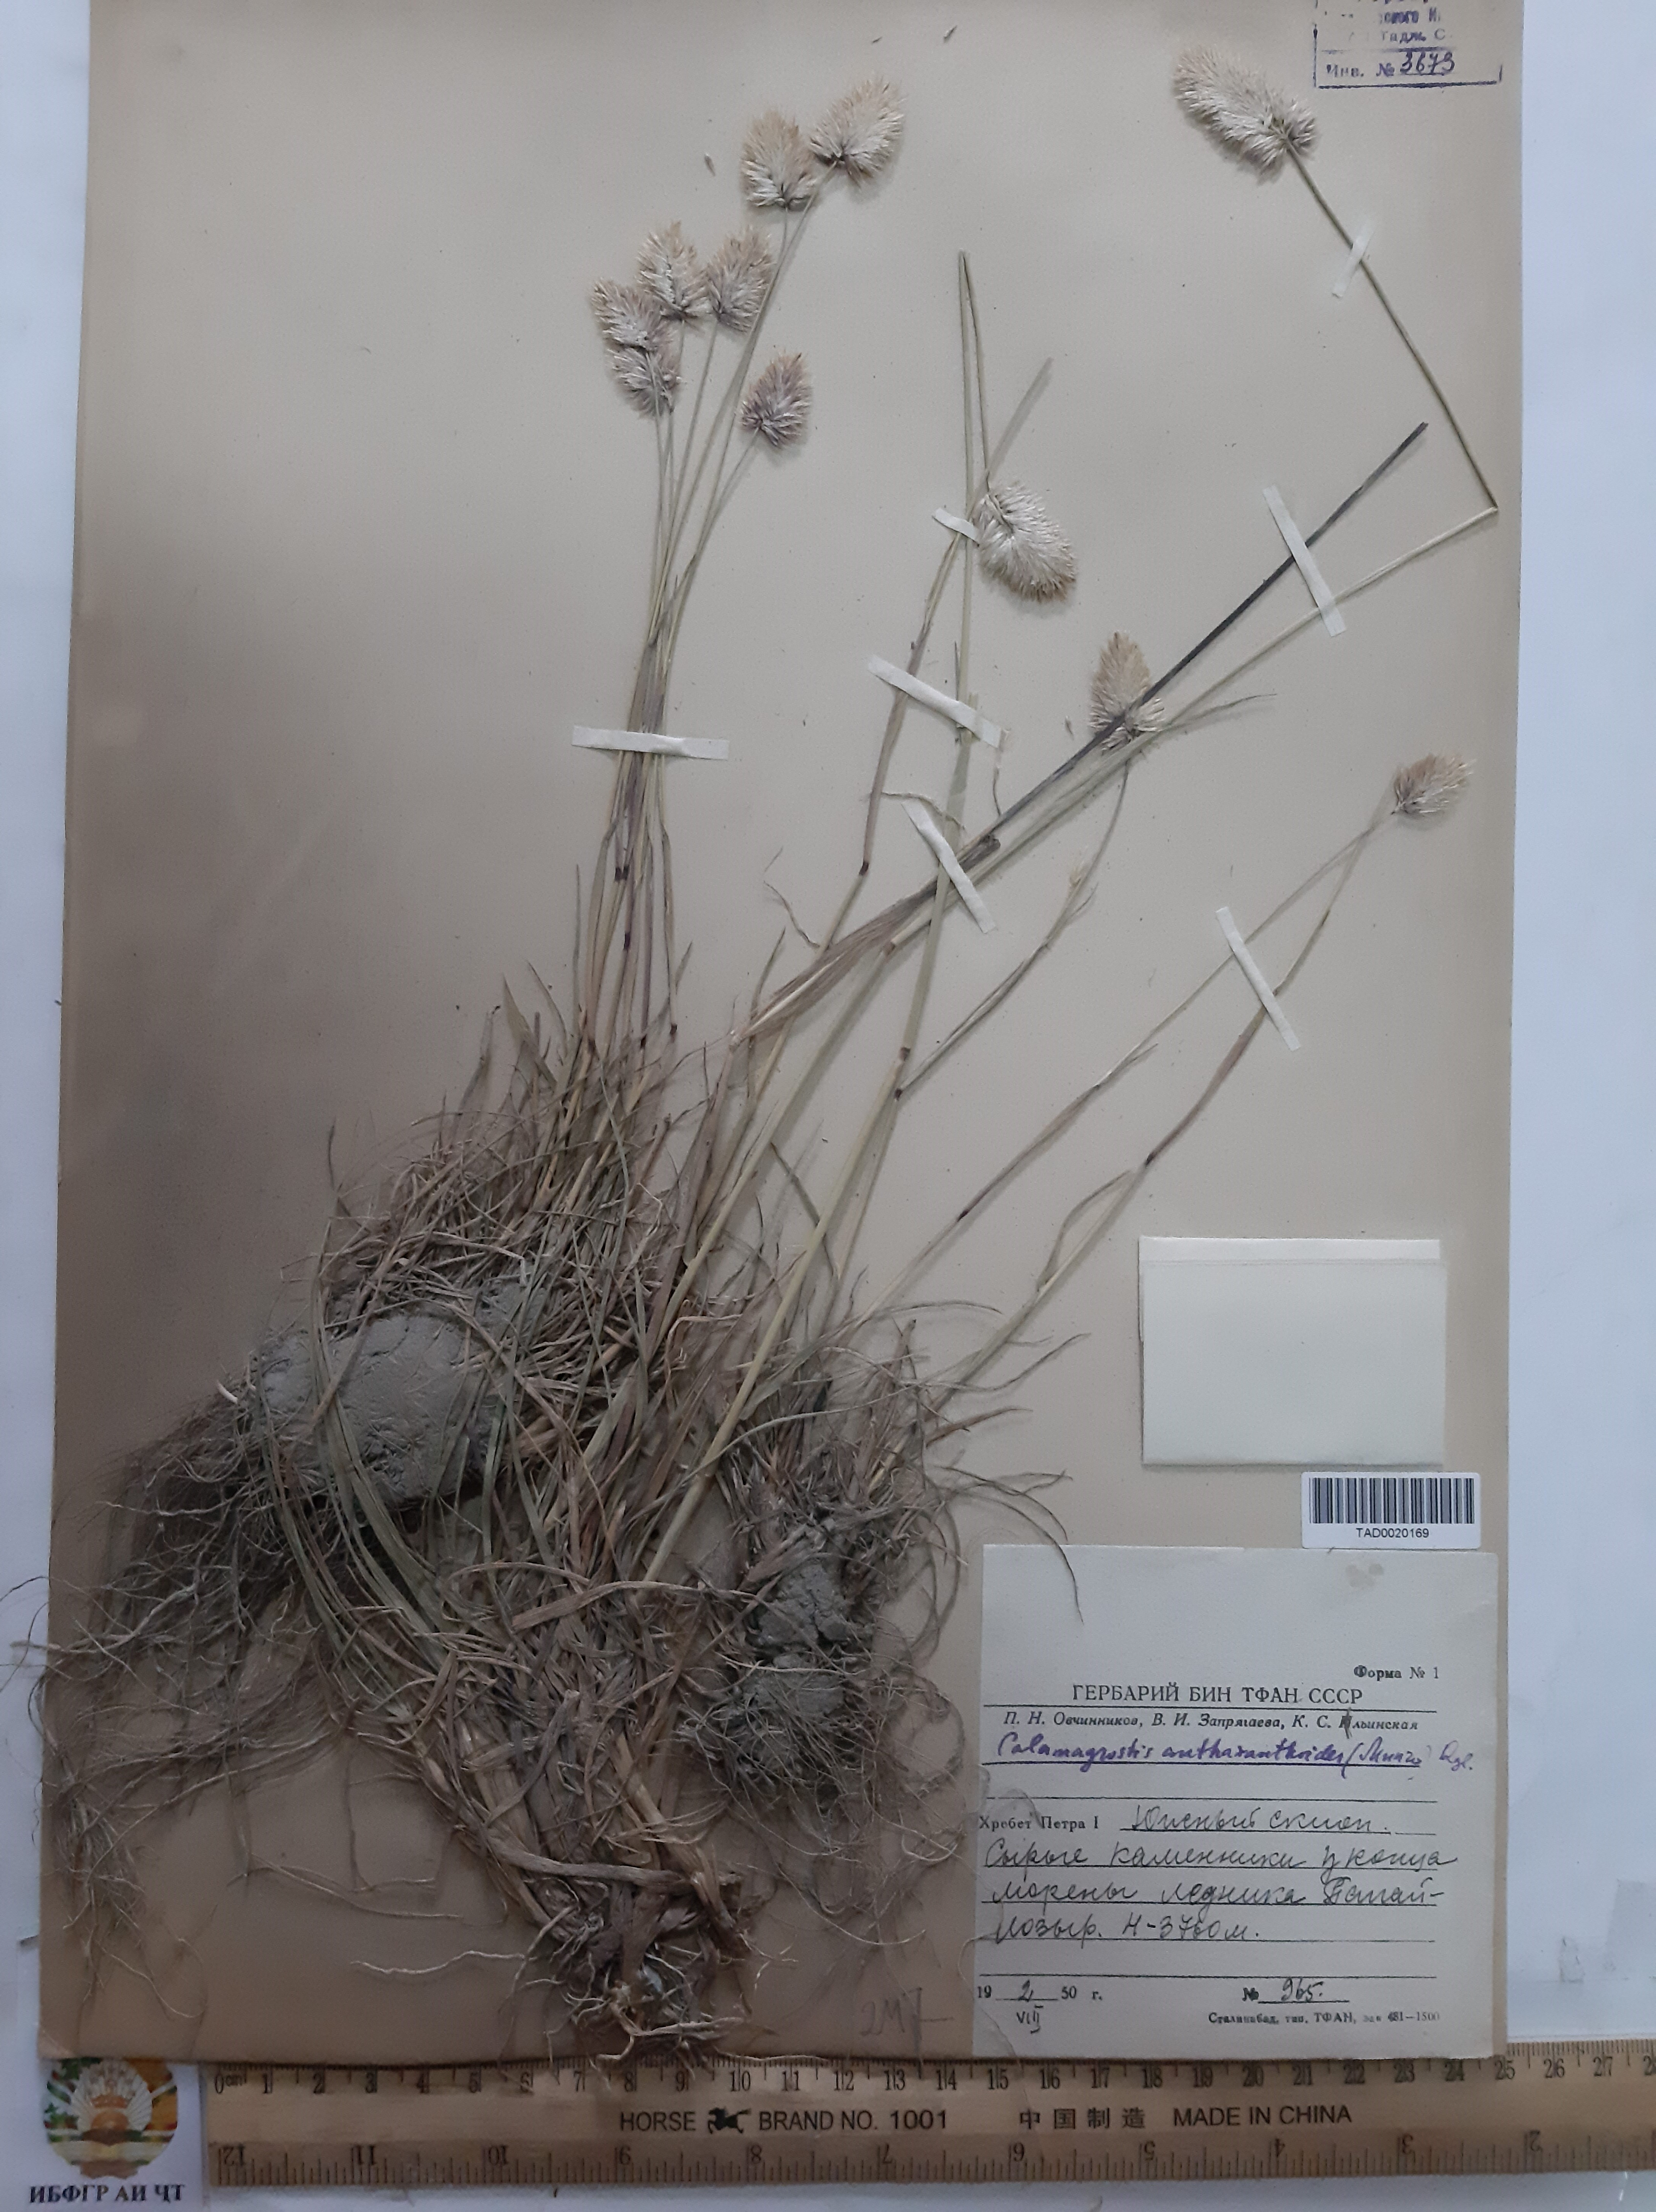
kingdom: Plantae
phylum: Tracheophyta
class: Liliopsida
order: Poales
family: Poaceae
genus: Calamagrostis
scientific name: Calamagrostis anthoxanthoides
